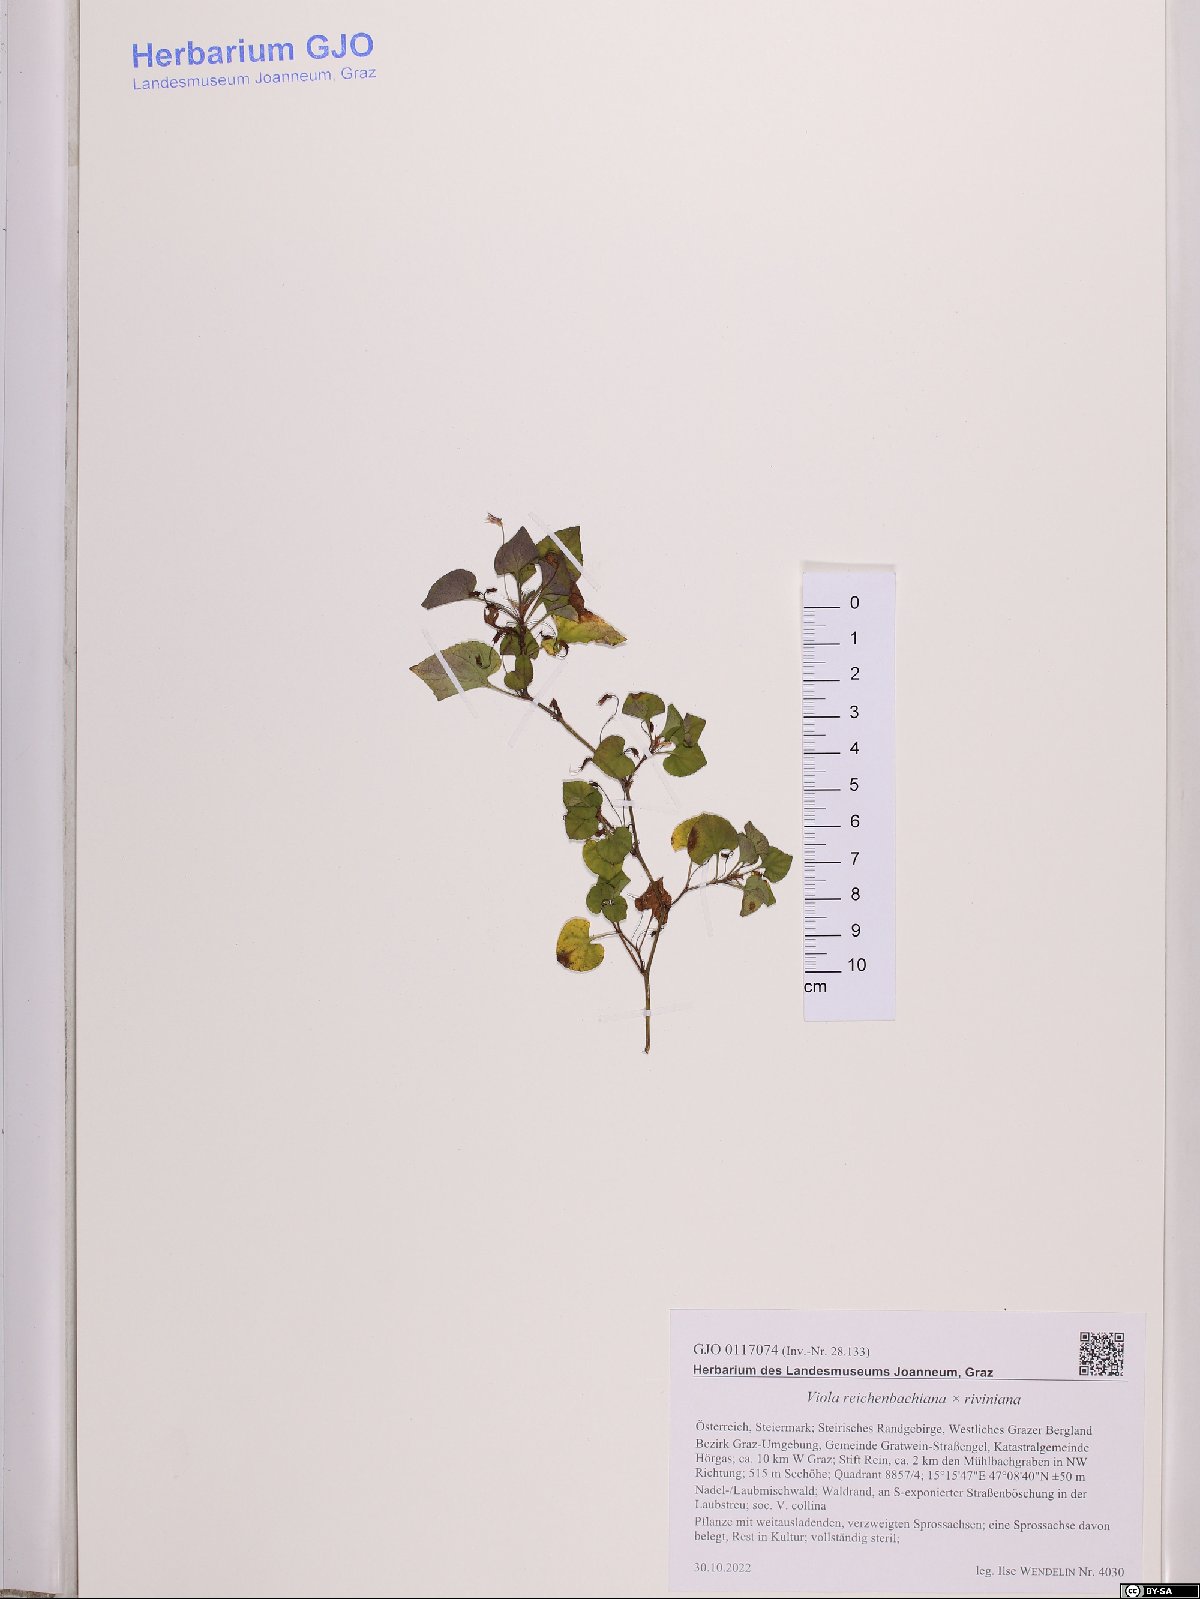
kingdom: Plantae
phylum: Tracheophyta
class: Magnoliopsida
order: Malpighiales
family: Violaceae
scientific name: Violaceae
